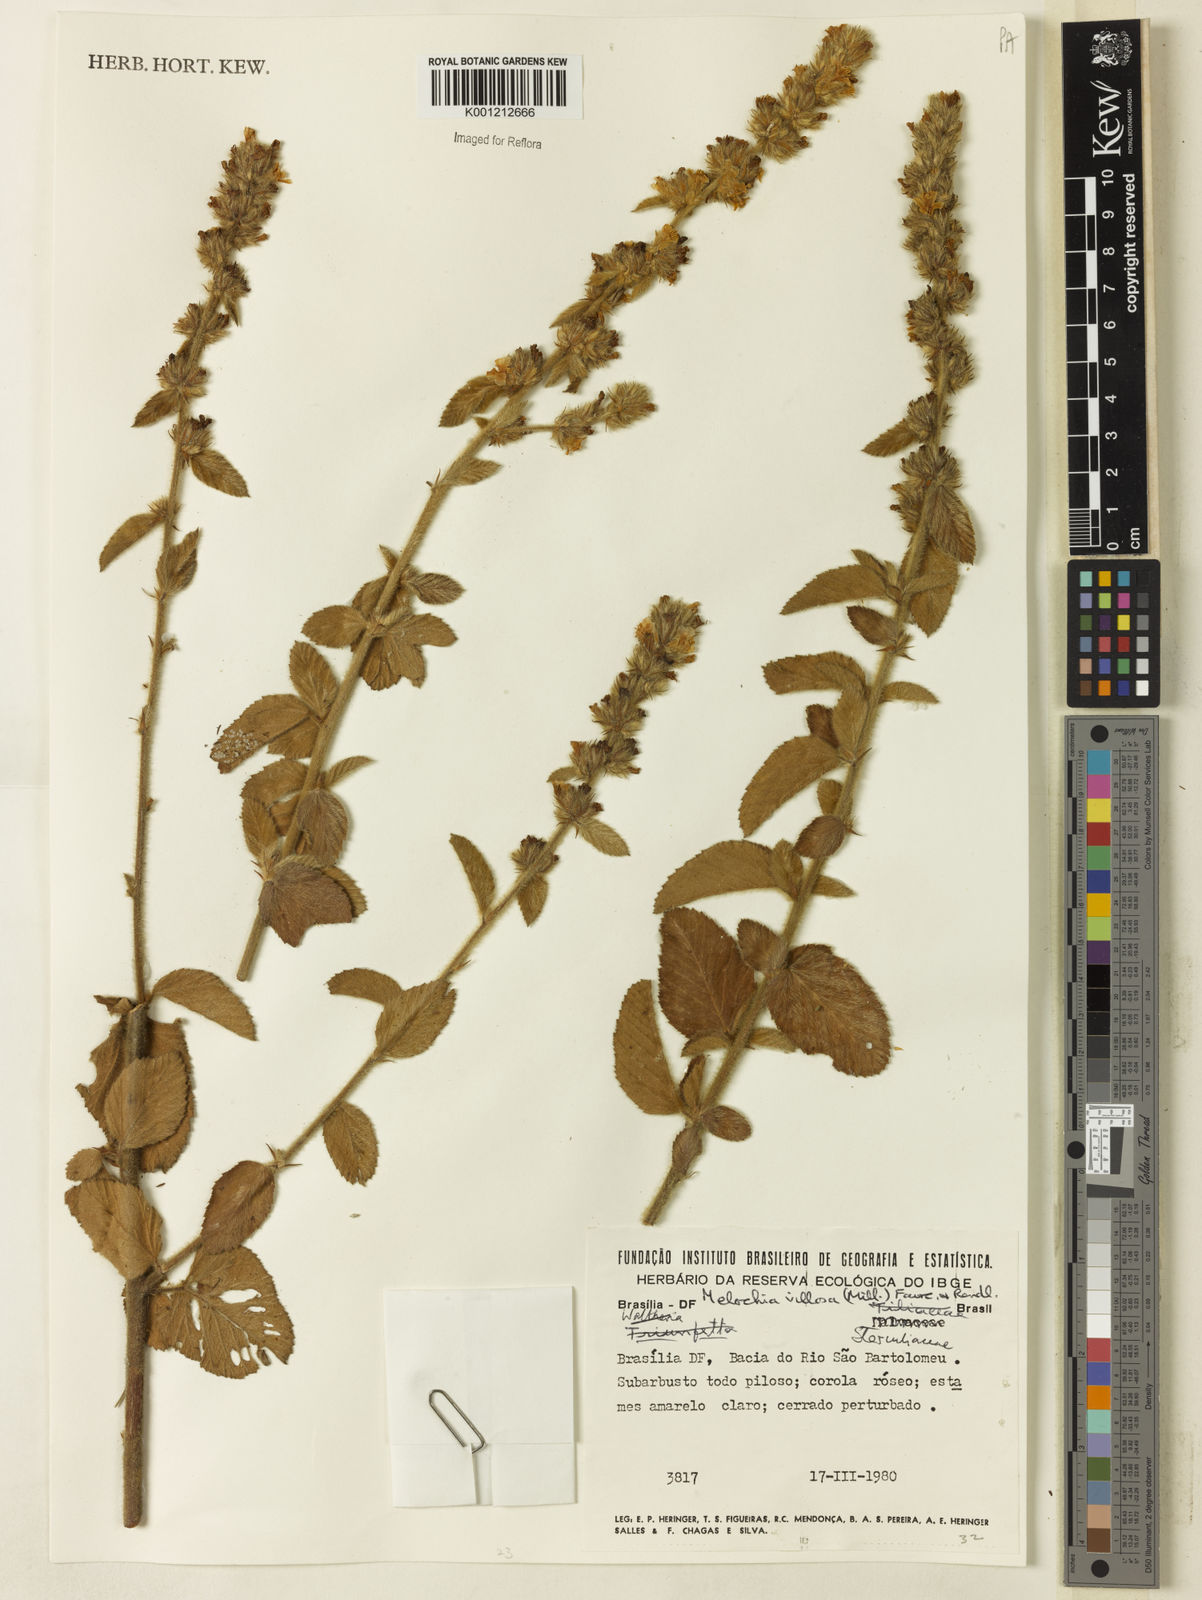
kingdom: Plantae
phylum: Tracheophyta
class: Magnoliopsida
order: Malvales
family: Malvaceae
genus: Melochia
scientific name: Melochia spicata
